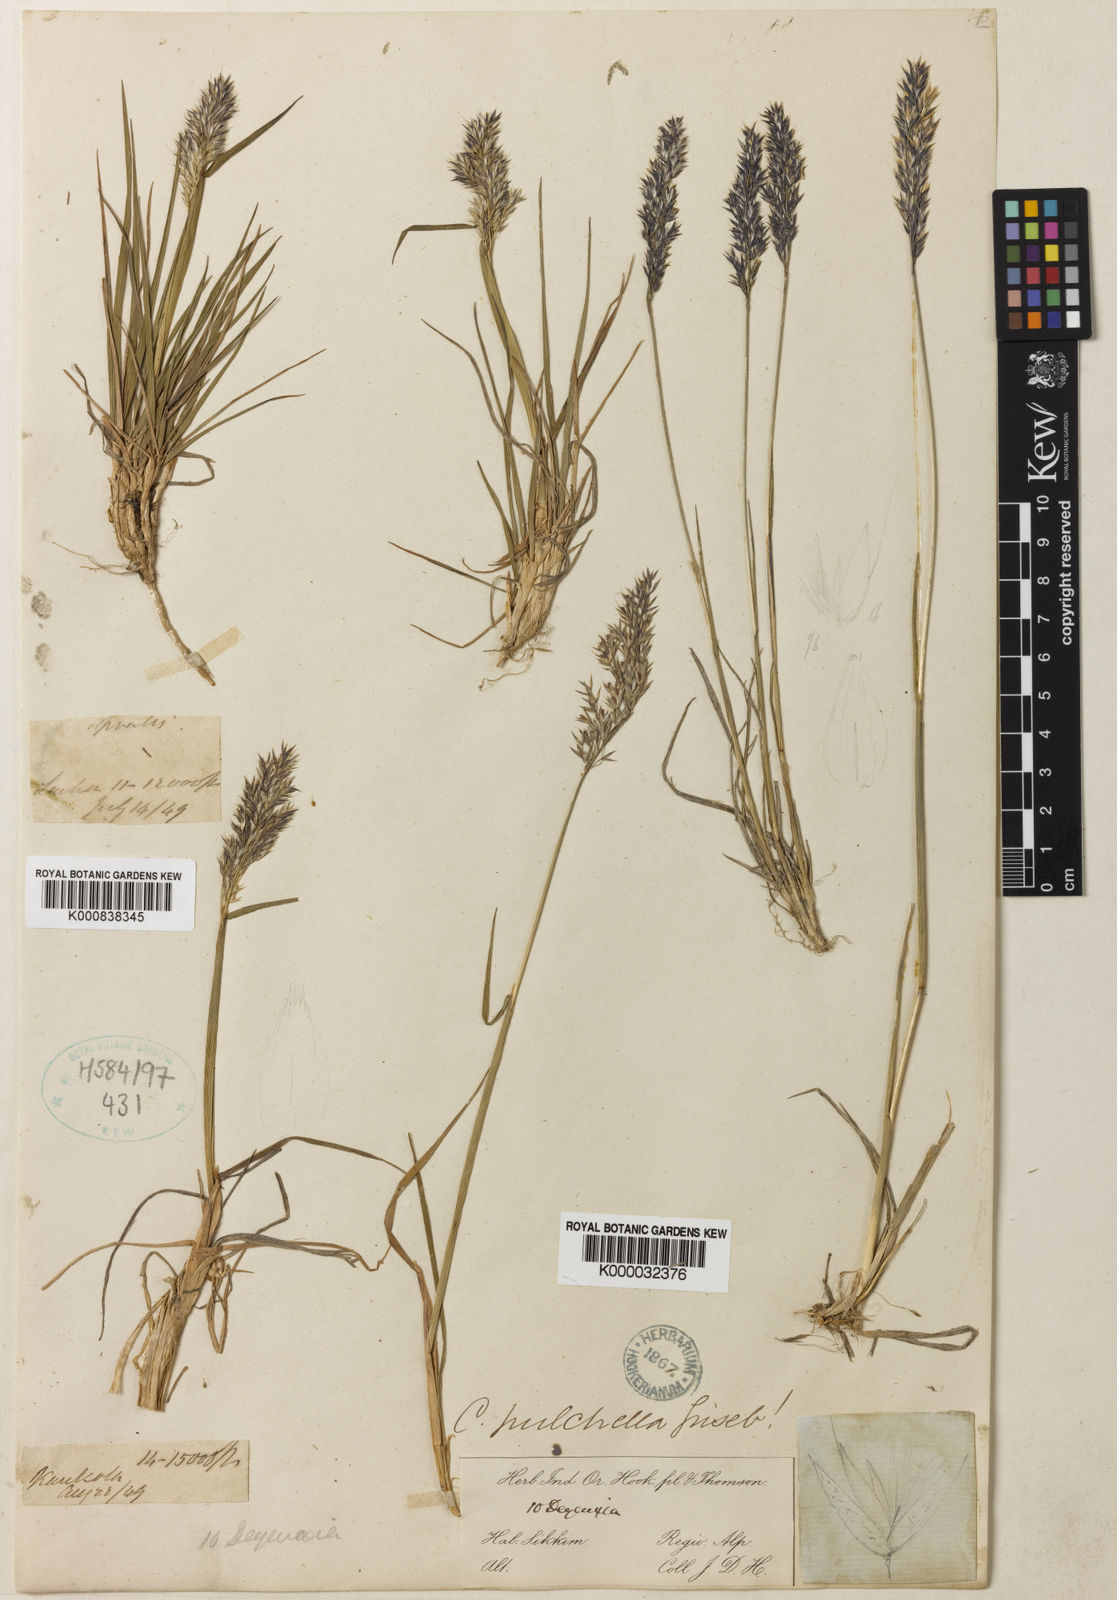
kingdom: Plantae
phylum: Tracheophyta
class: Liliopsida
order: Poales
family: Poaceae
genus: Calamagrostis
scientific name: Calamagrostis lahulensis
